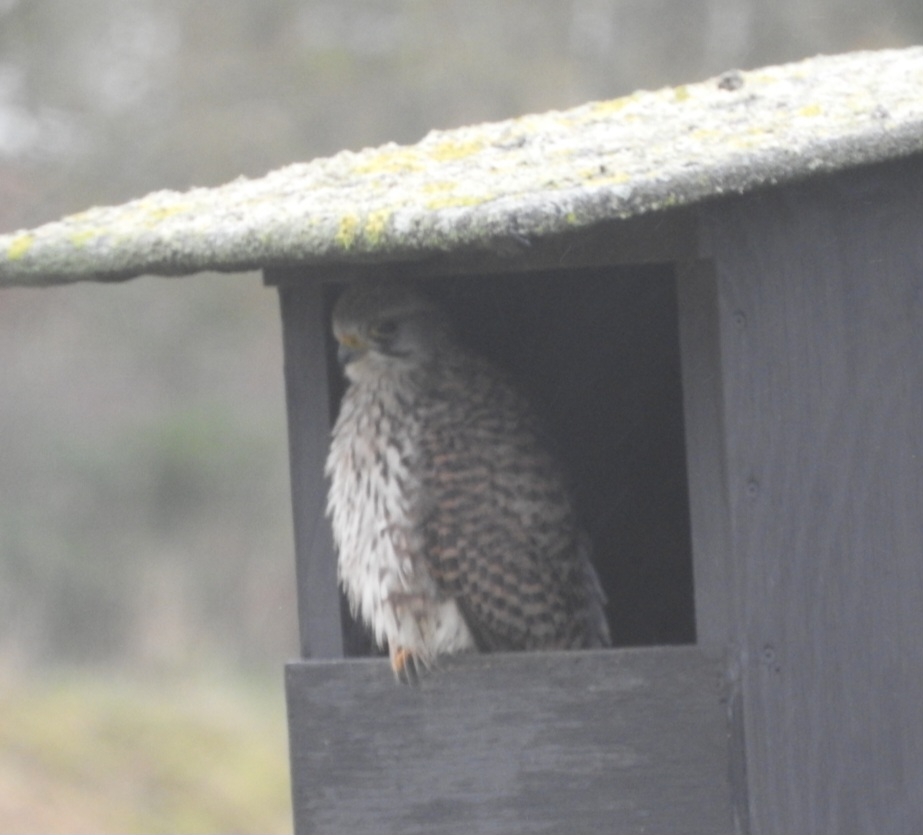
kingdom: Animalia
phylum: Chordata
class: Aves
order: Falconiformes
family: Falconidae
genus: Falco
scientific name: Falco tinnunculus
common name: Tårnfalk
